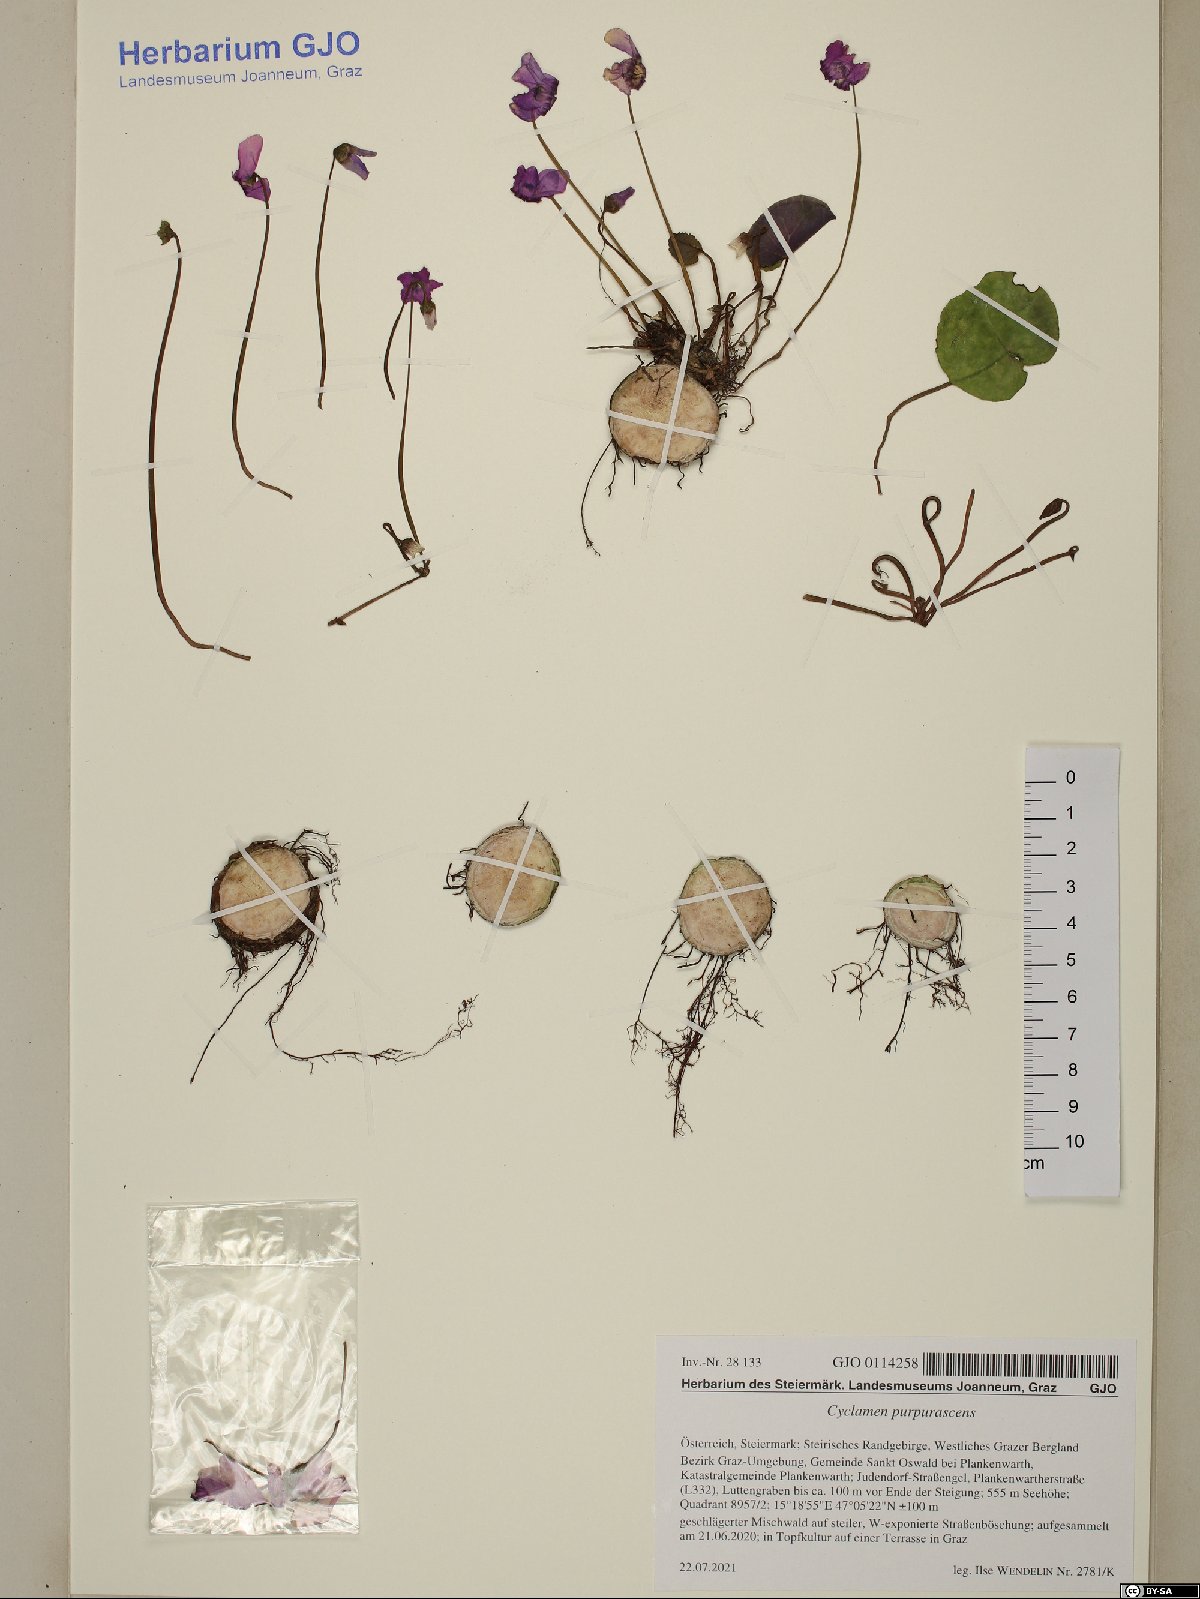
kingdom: Plantae
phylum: Tracheophyta
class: Magnoliopsida
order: Ericales
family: Primulaceae
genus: Cyclamen
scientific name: Cyclamen purpurascens
